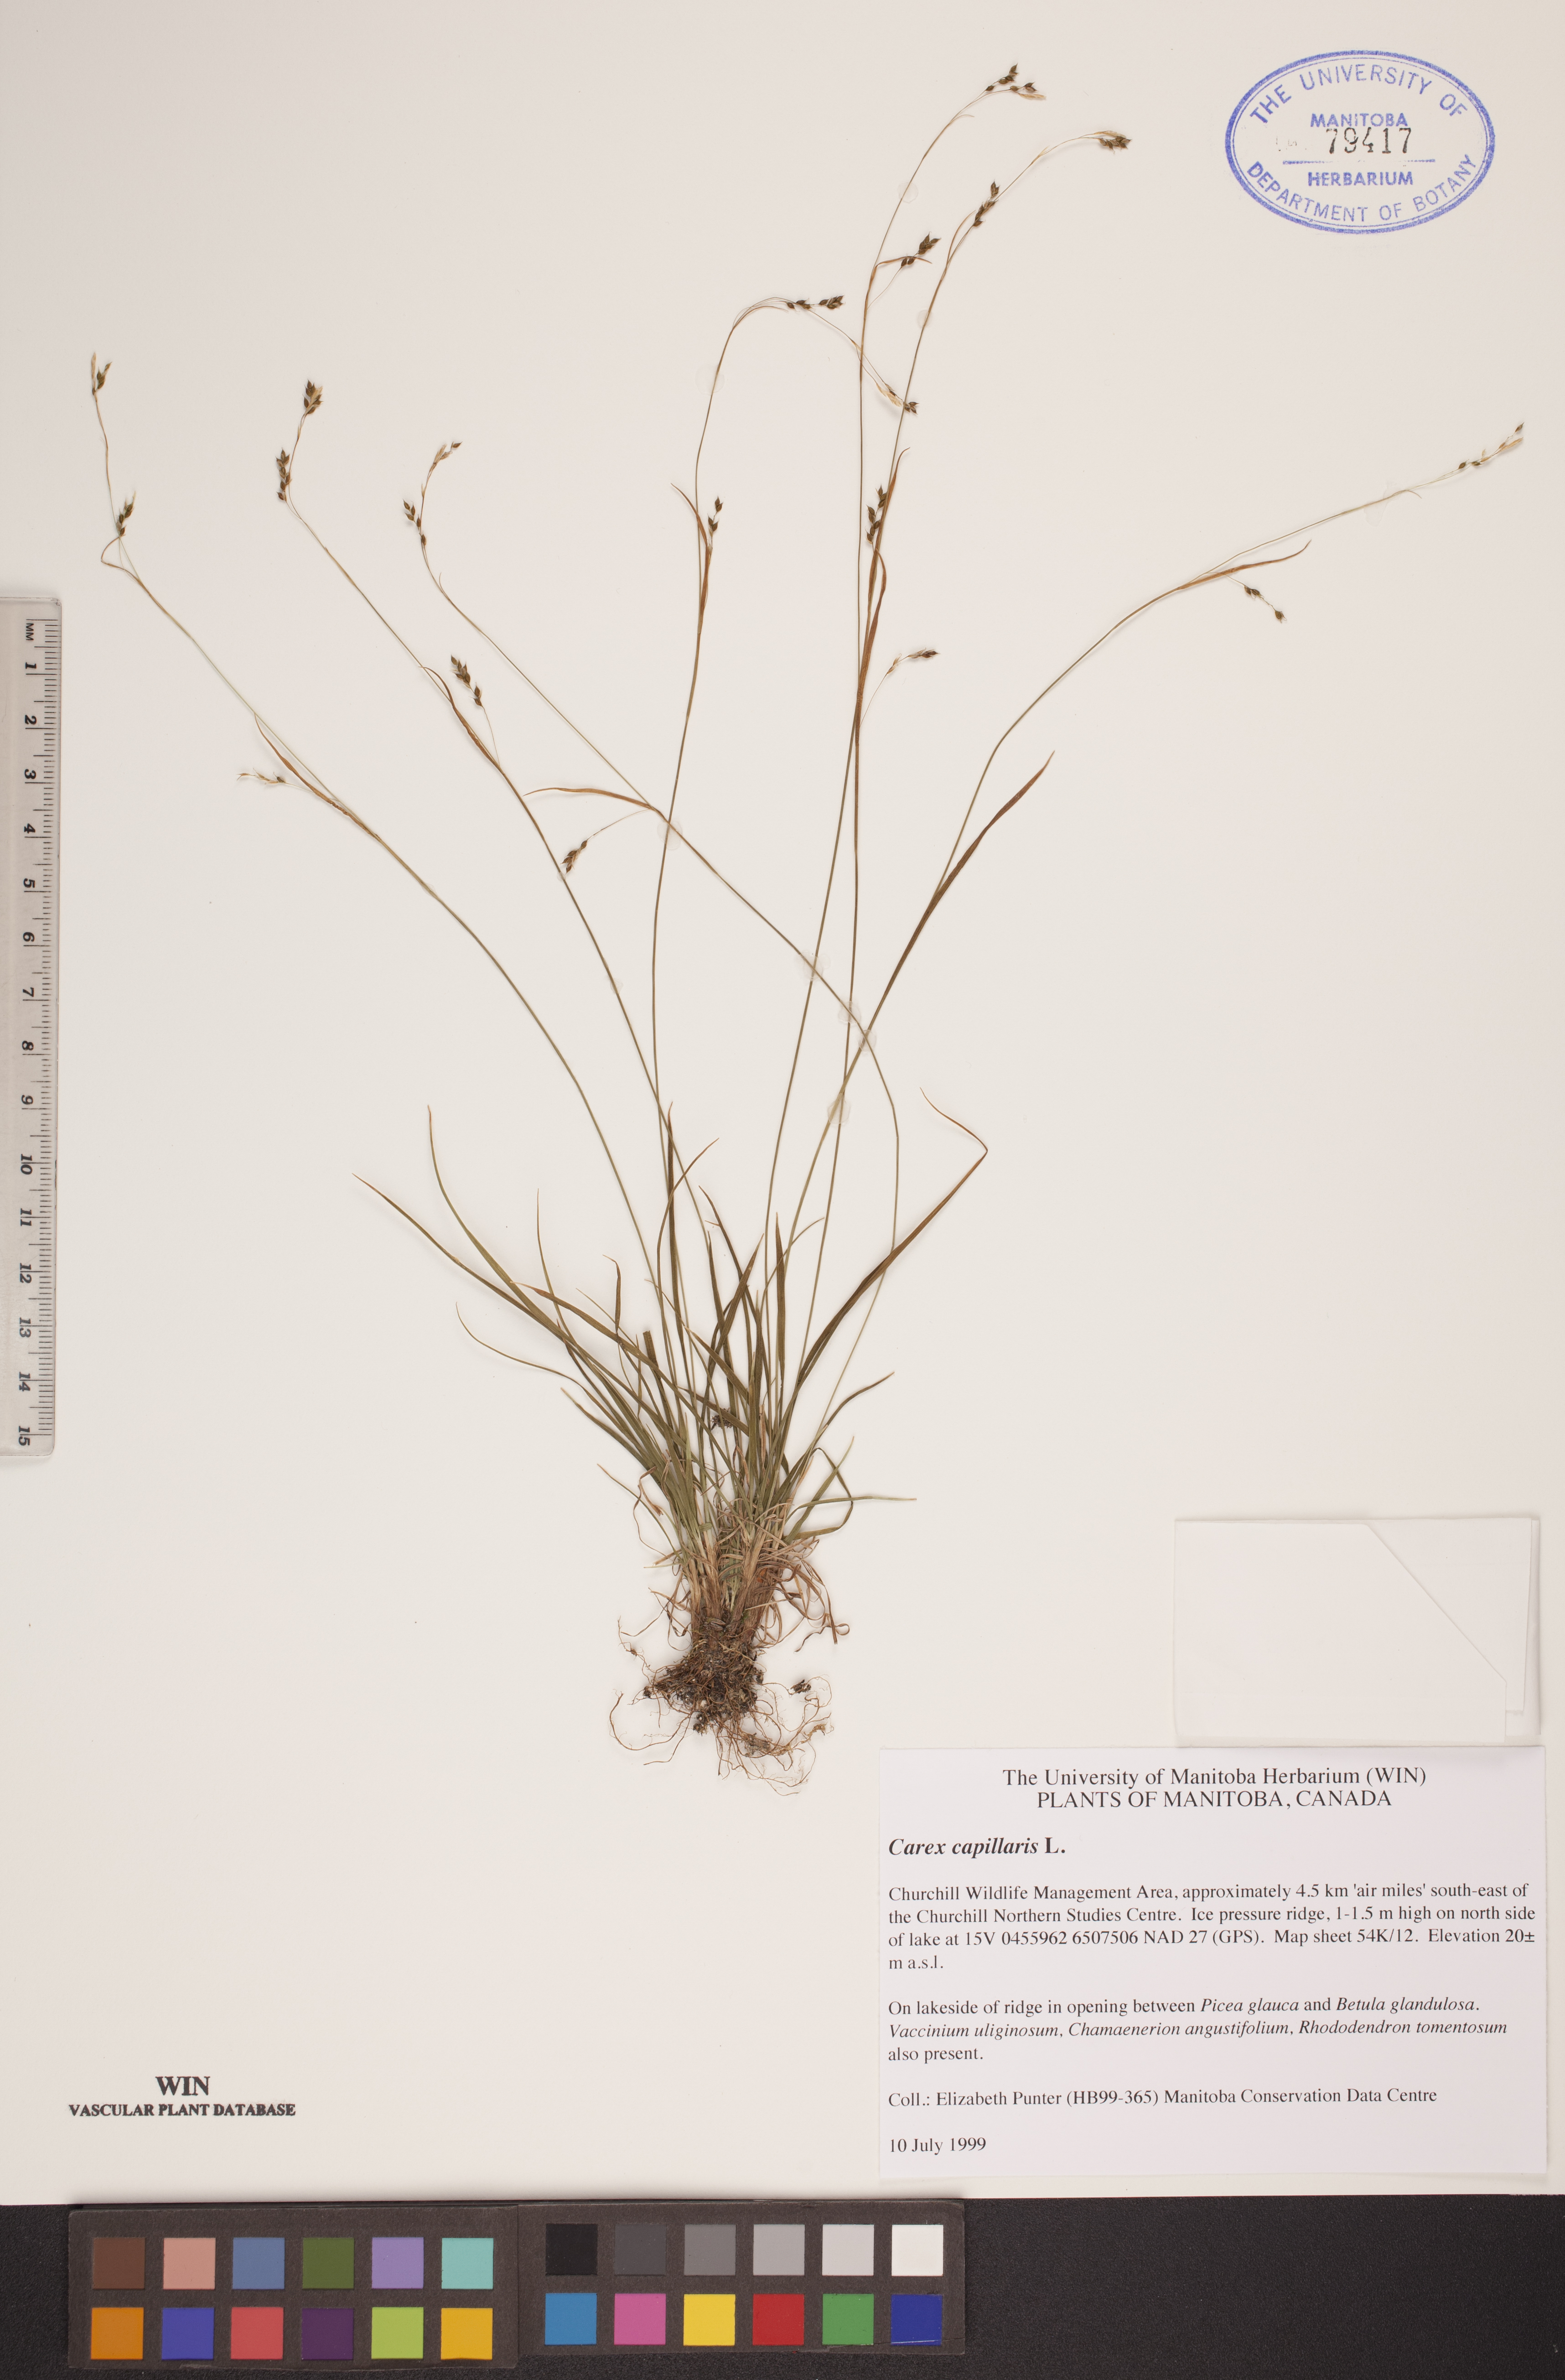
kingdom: Plantae
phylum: Tracheophyta
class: Liliopsida
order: Poales
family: Cyperaceae
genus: Carex
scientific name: Carex capillaris
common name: Hair sedge
